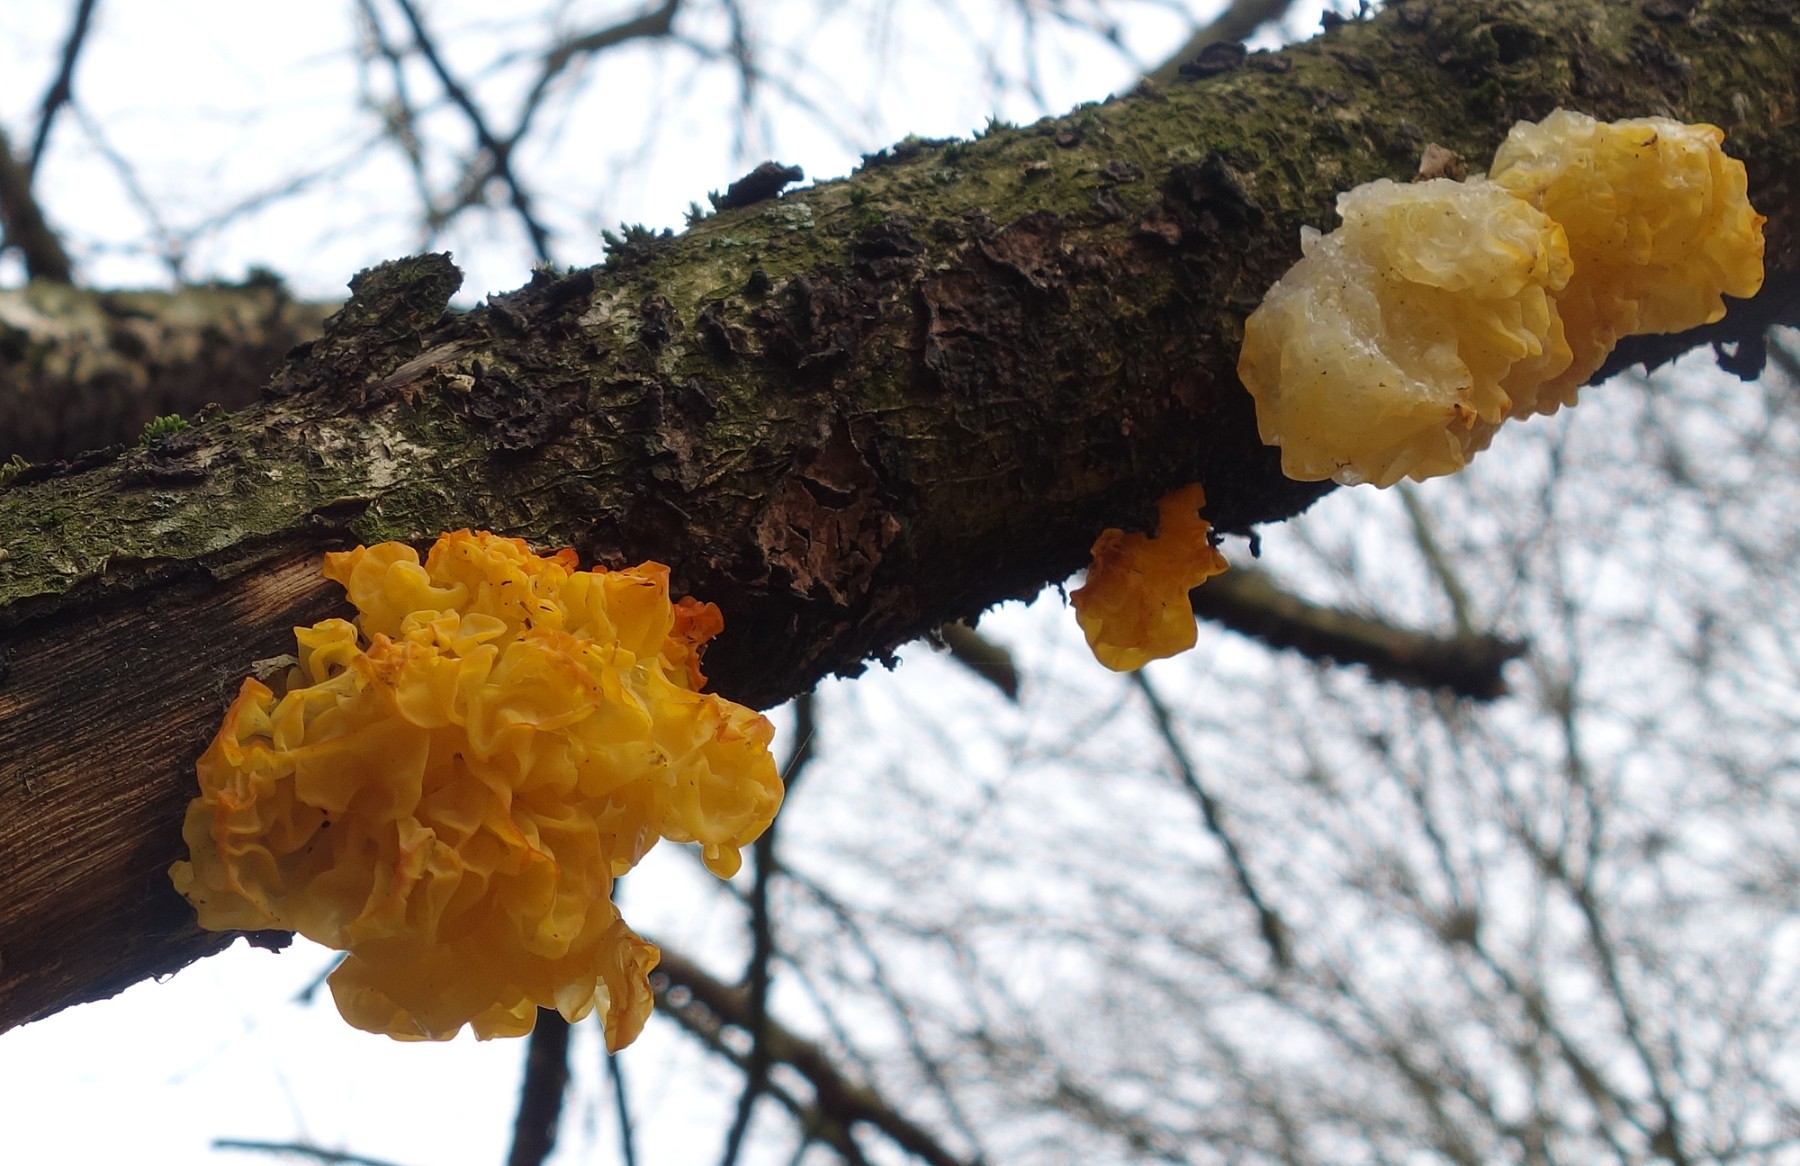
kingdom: Fungi
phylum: Basidiomycota
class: Tremellomycetes
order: Tremellales
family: Tremellaceae
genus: Tremella
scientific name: Tremella mesenterica
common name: gul bævresvamp
